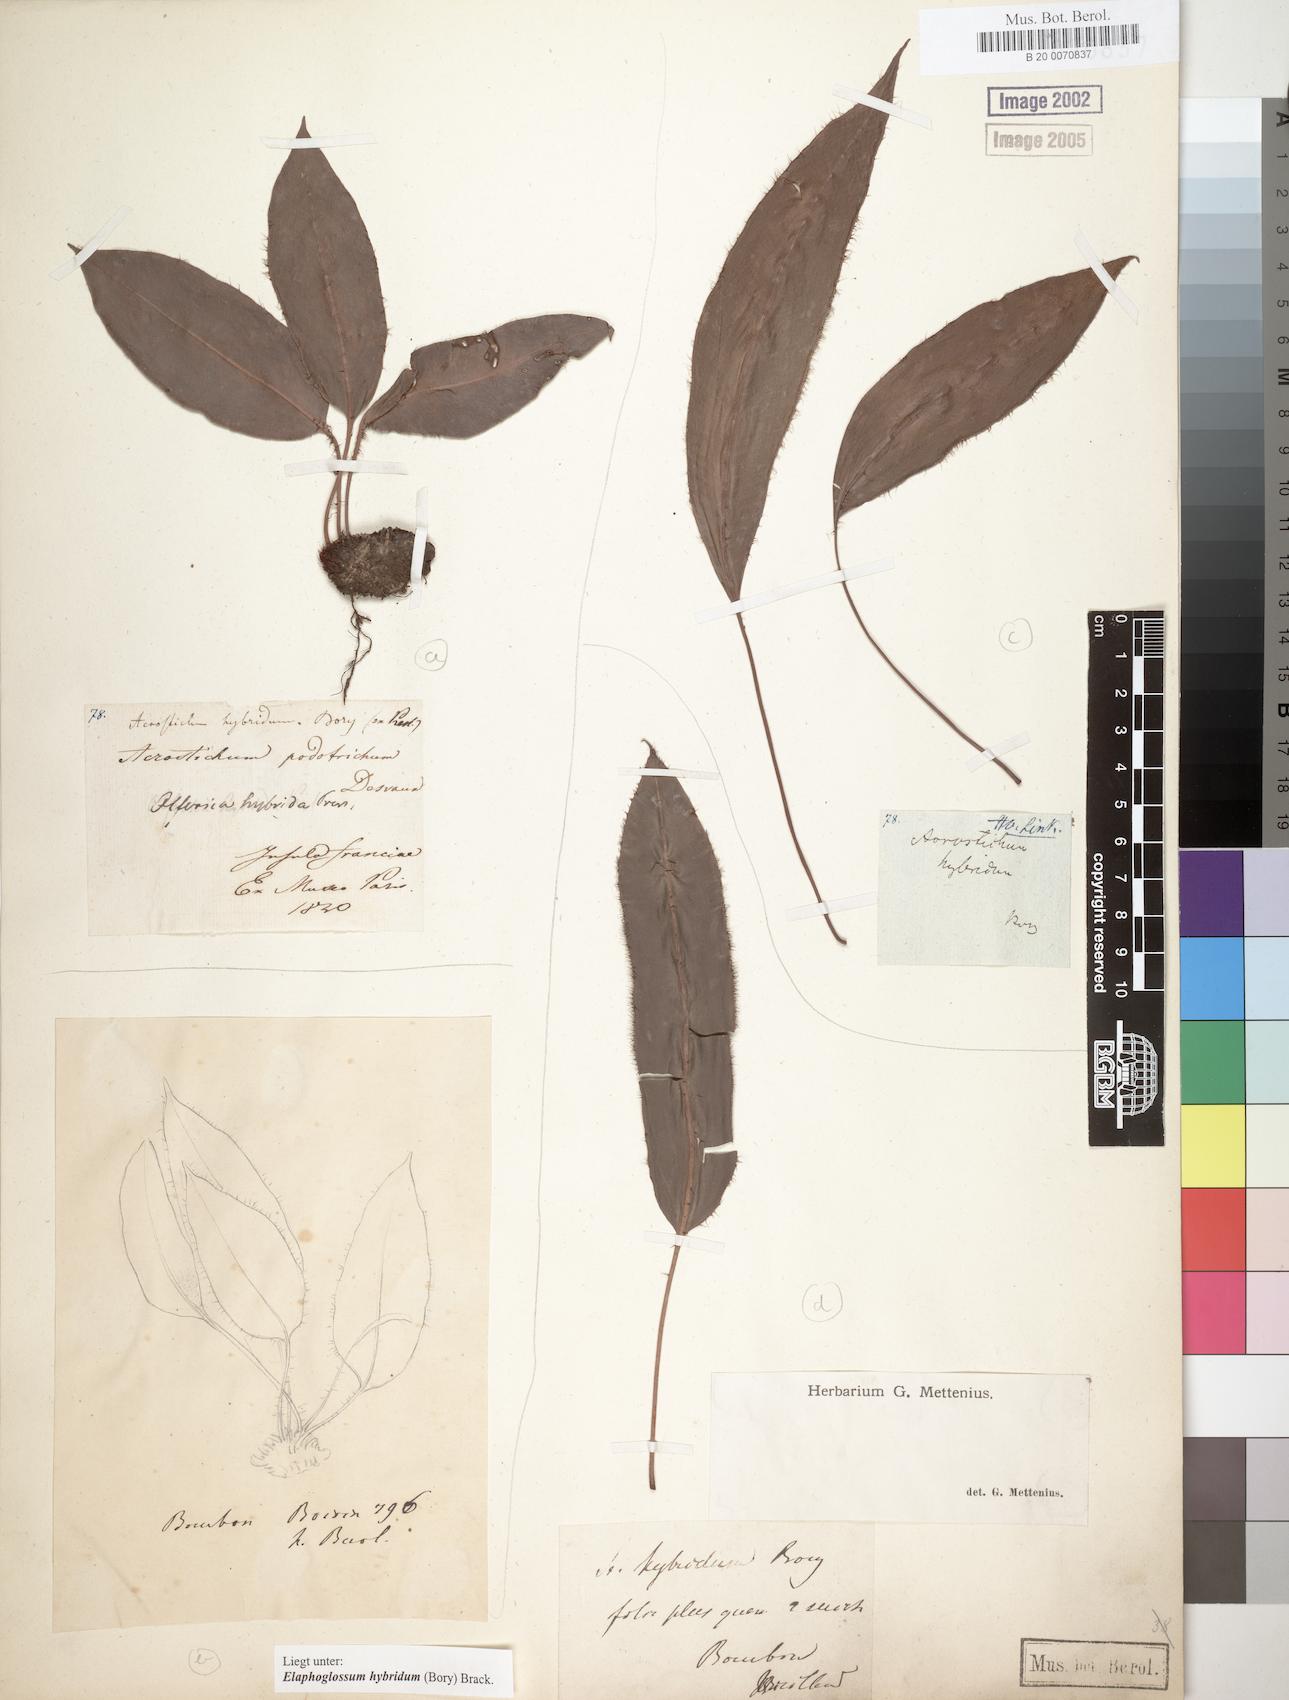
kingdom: Plantae
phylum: Tracheophyta
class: Polypodiopsida
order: Polypodiales
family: Dryopteridaceae
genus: Elaphoglossum
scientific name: Elaphoglossum hybridum
